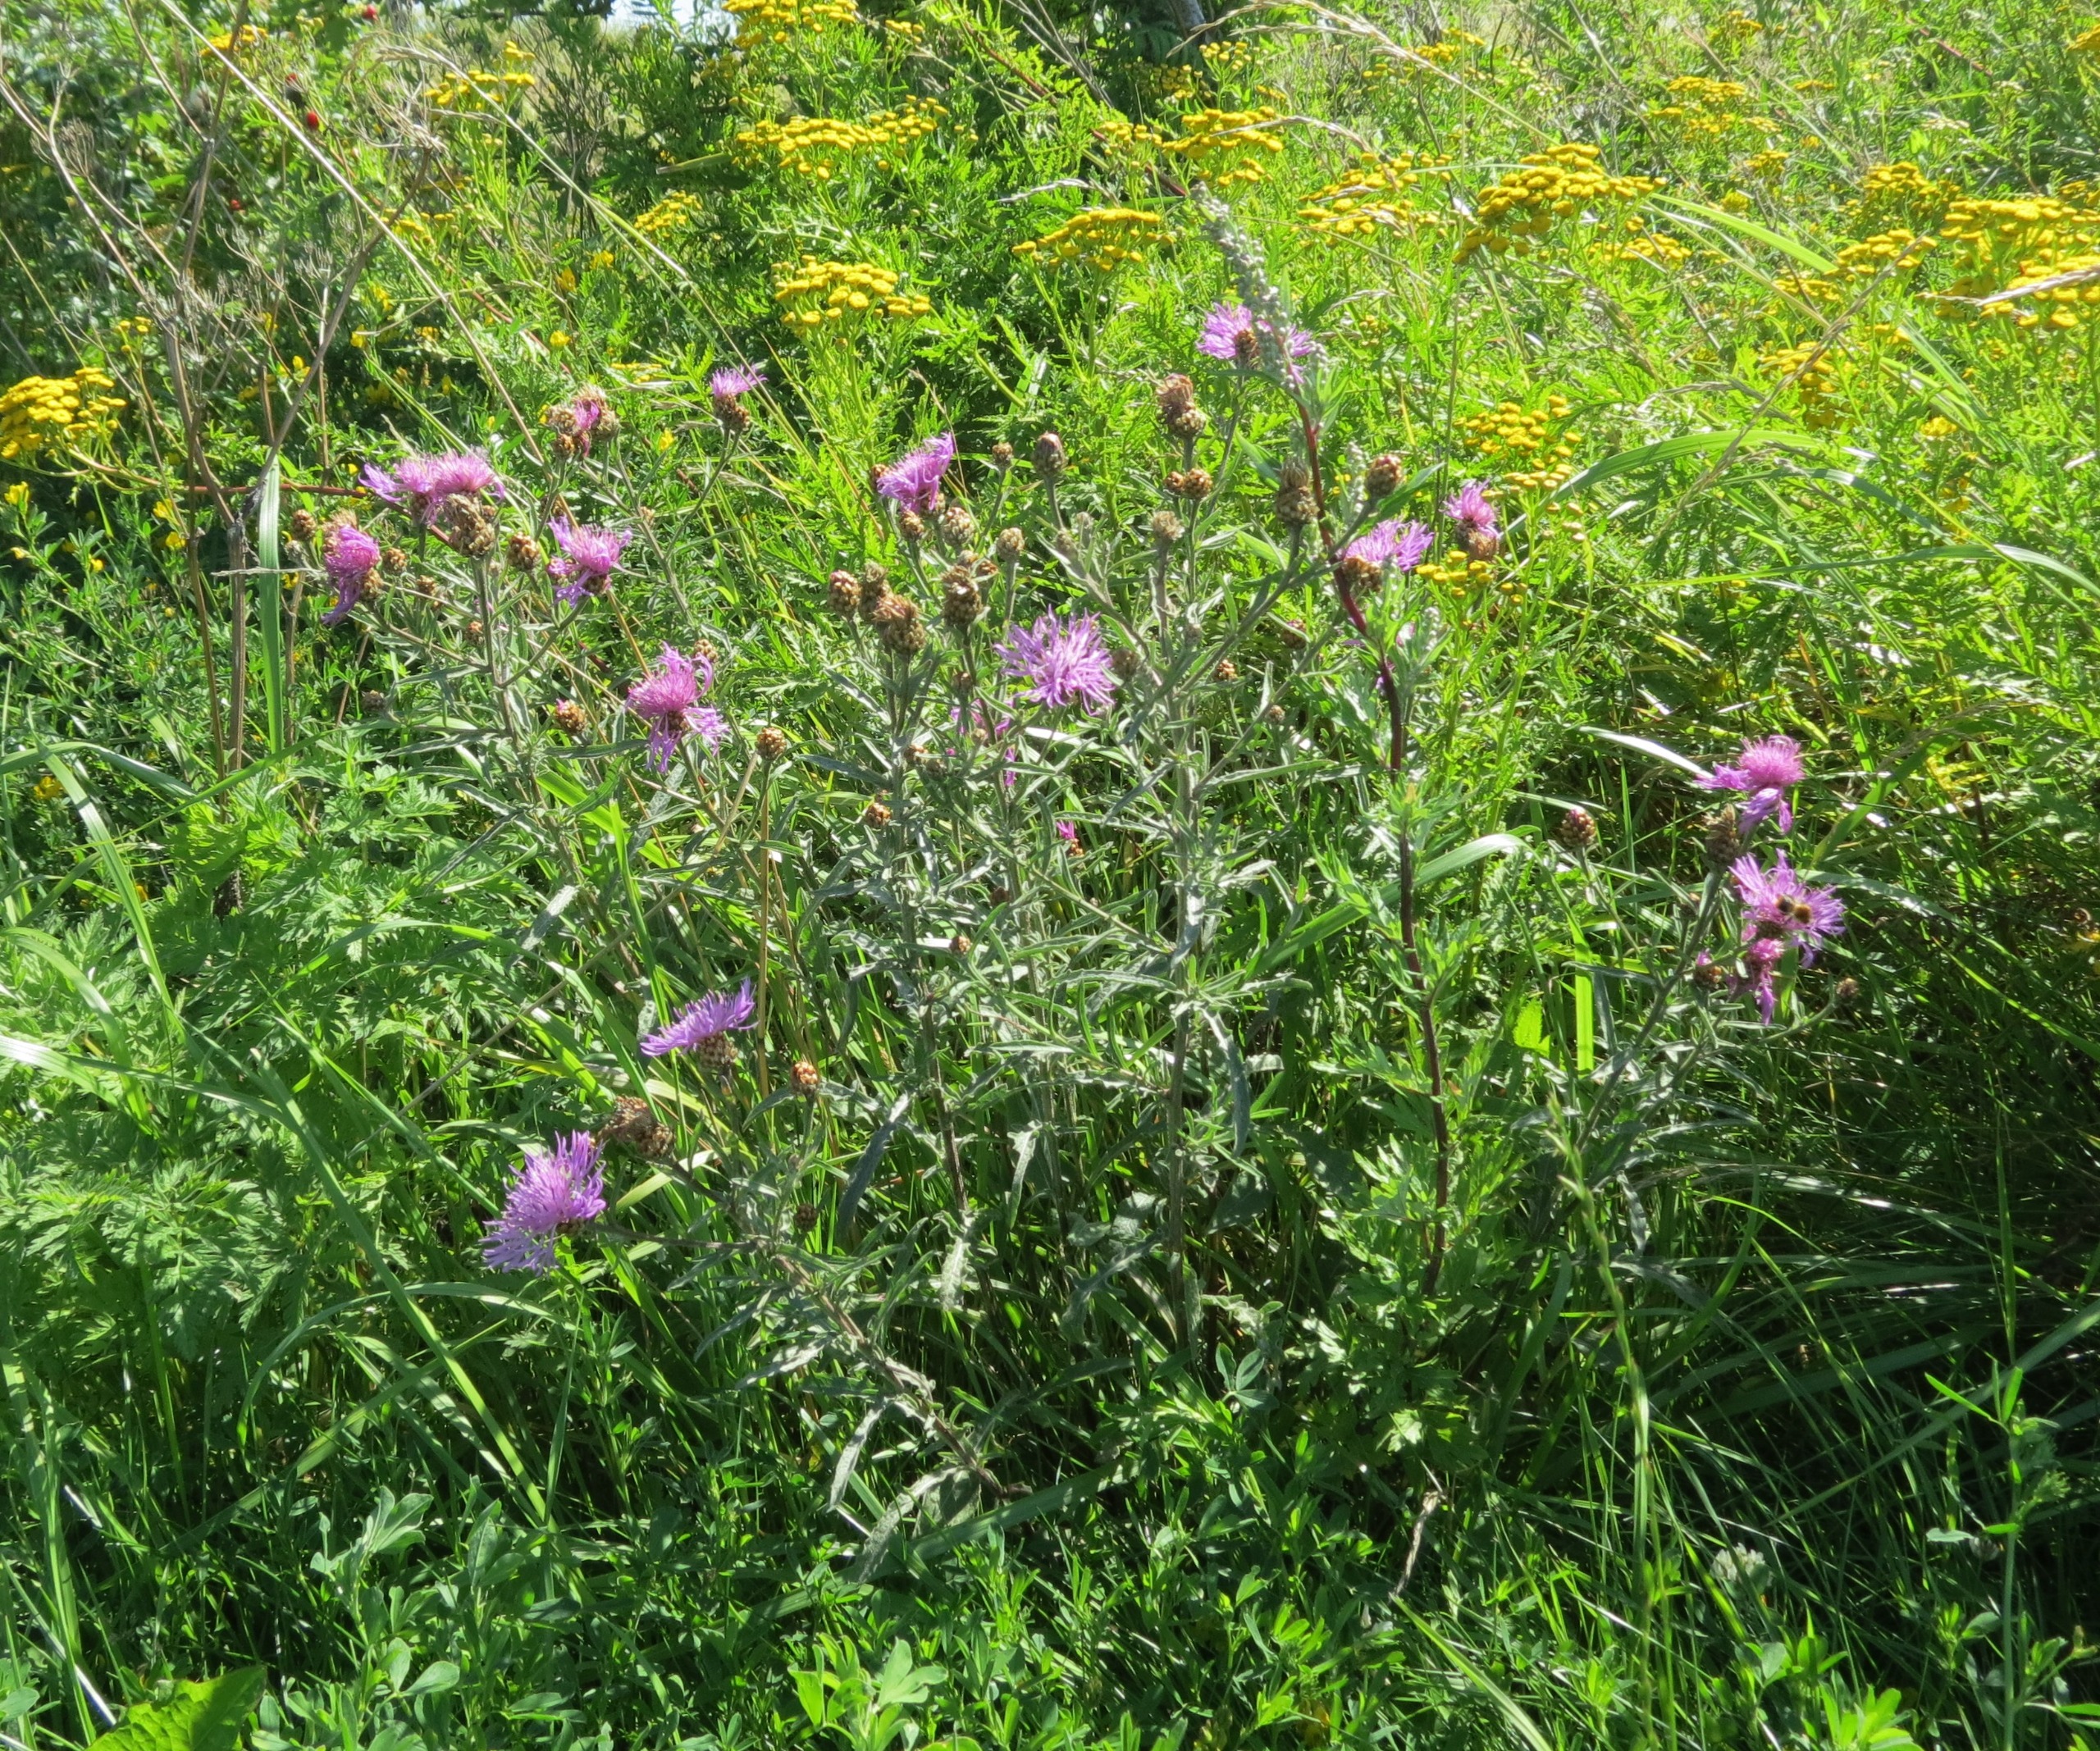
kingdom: Plantae
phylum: Tracheophyta
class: Magnoliopsida
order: Asterales
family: Asteraceae
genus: Centaurea
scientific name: Centaurea jacea
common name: Almindelig knopurt
